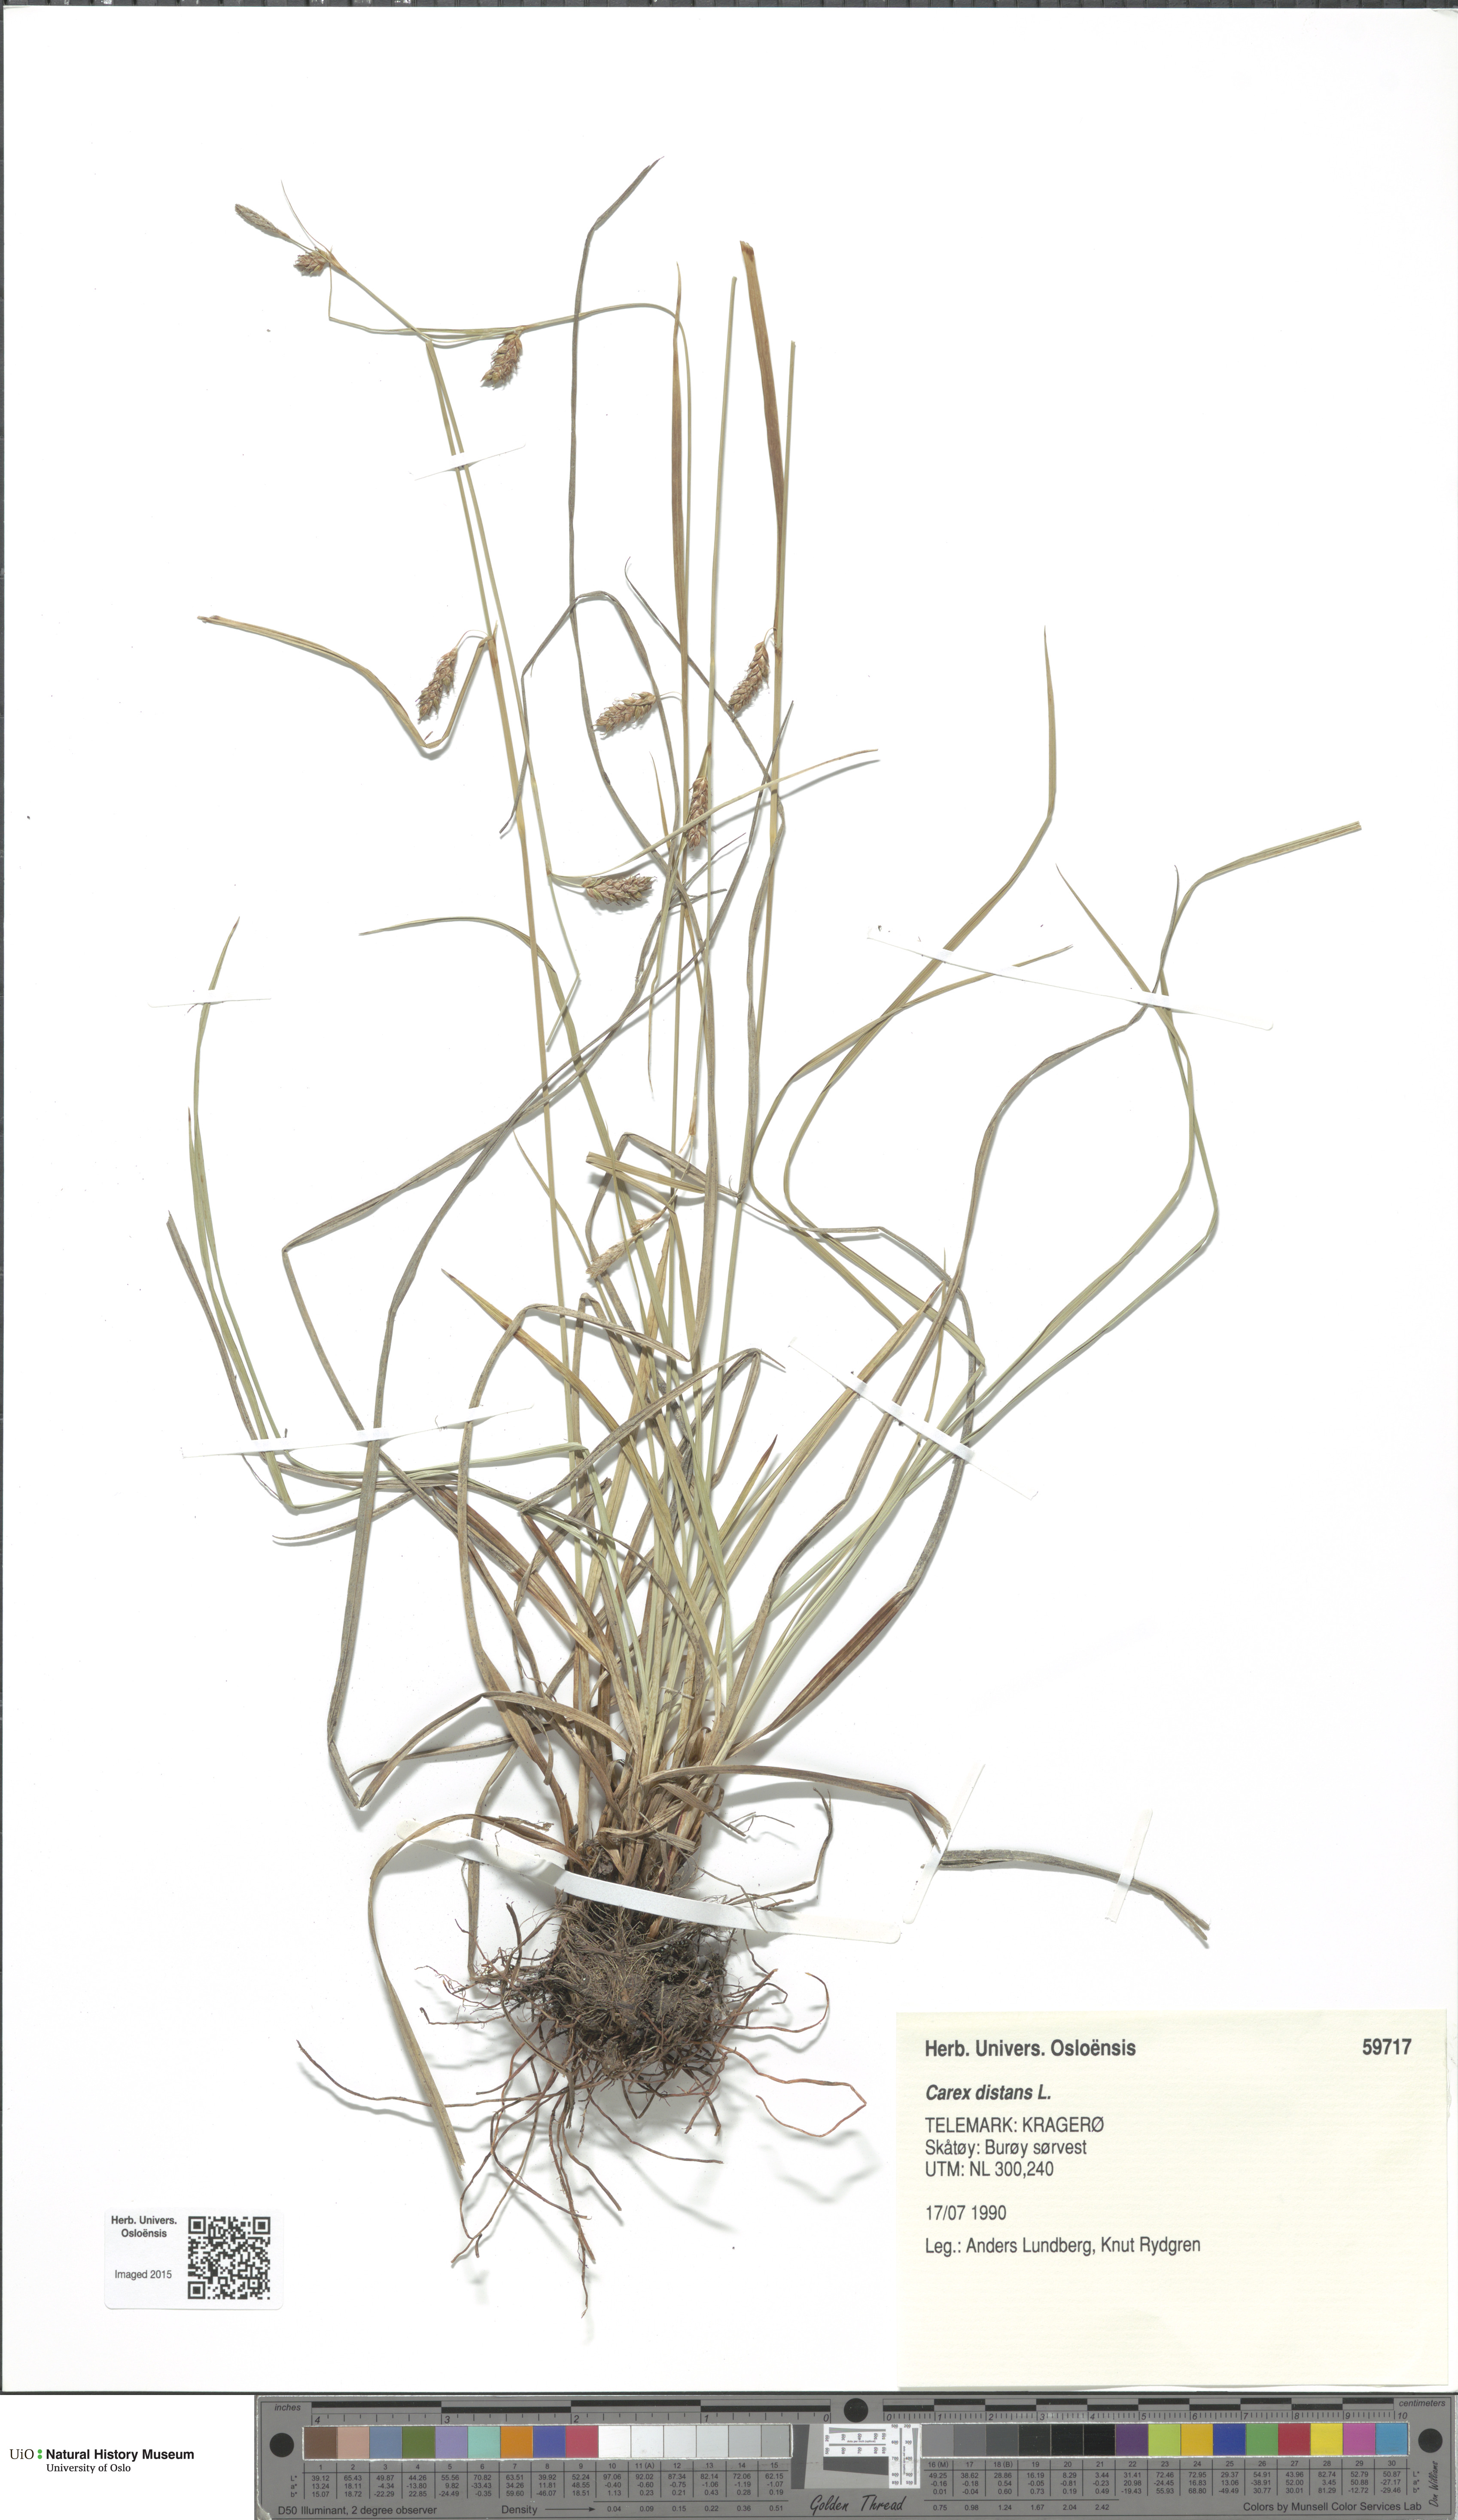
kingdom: Plantae
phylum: Tracheophyta
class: Liliopsida
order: Poales
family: Cyperaceae
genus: Carex
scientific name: Carex distans
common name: Distant sedge
